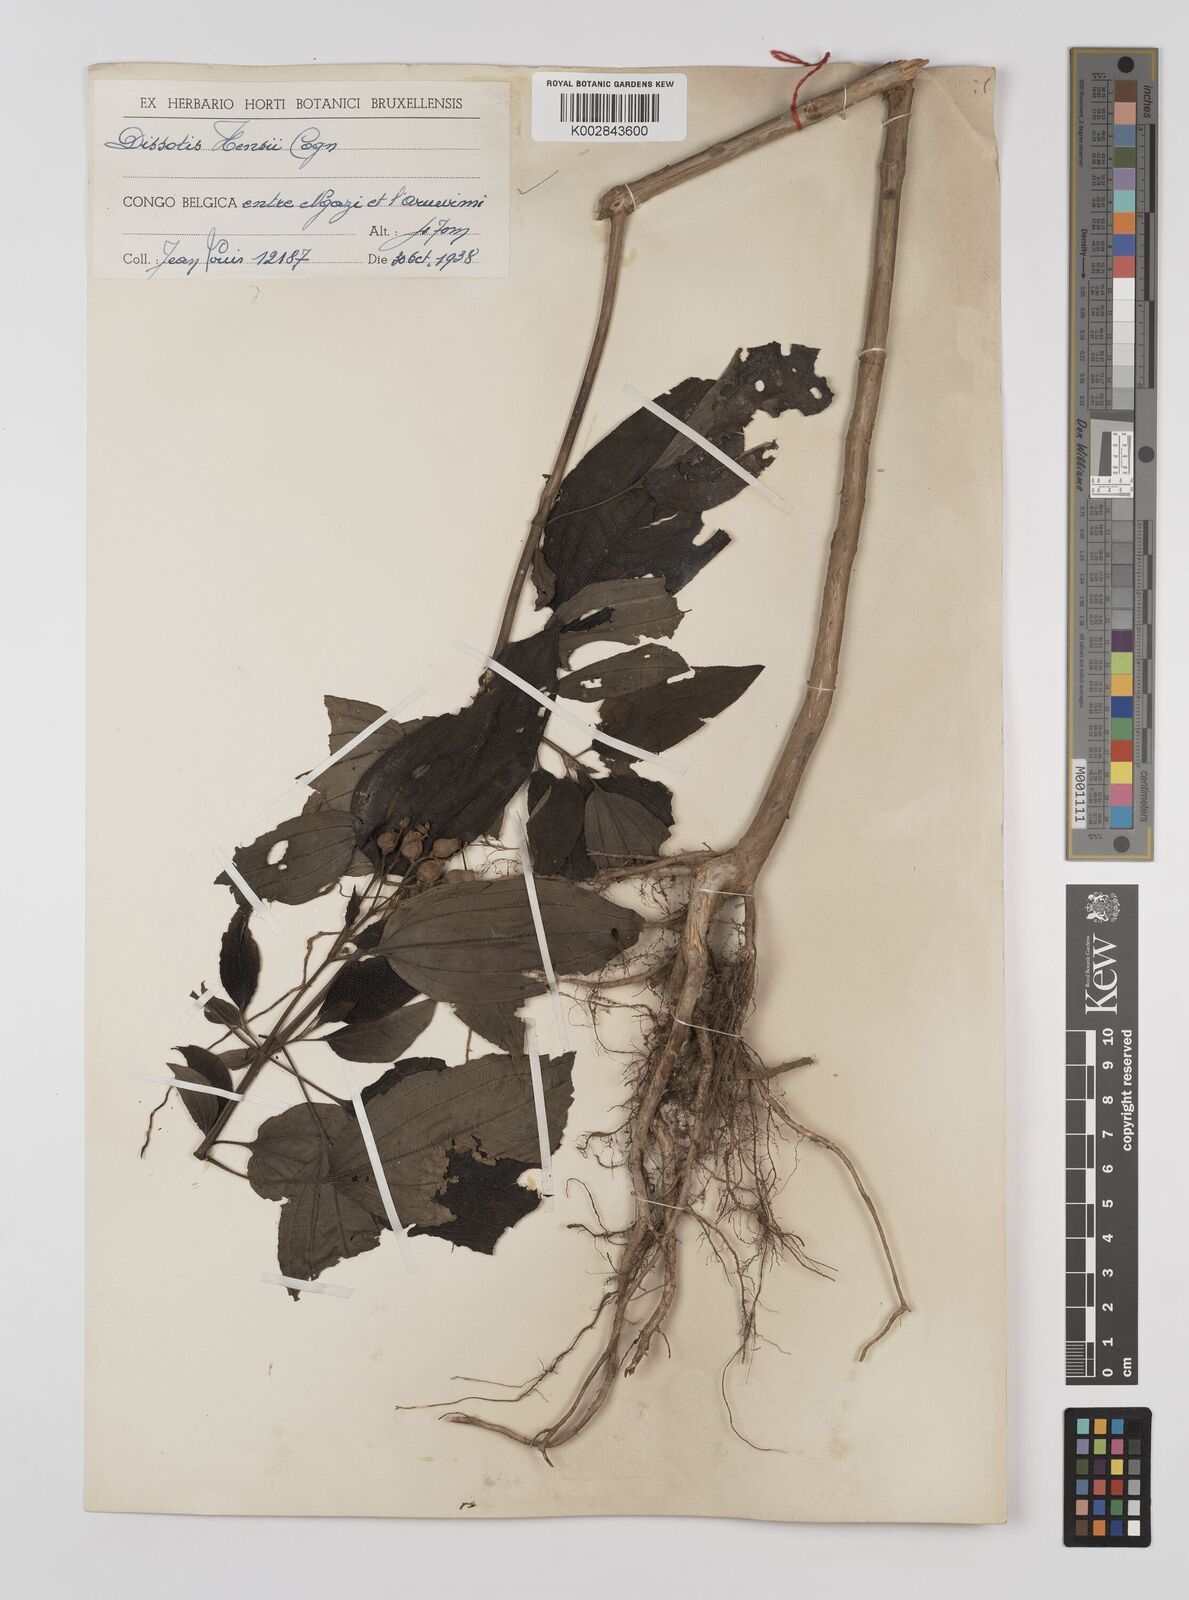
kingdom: Plantae
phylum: Tracheophyta
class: Magnoliopsida
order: Myrtales
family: Melastomataceae
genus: Dupineta
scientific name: Dupineta hensii
